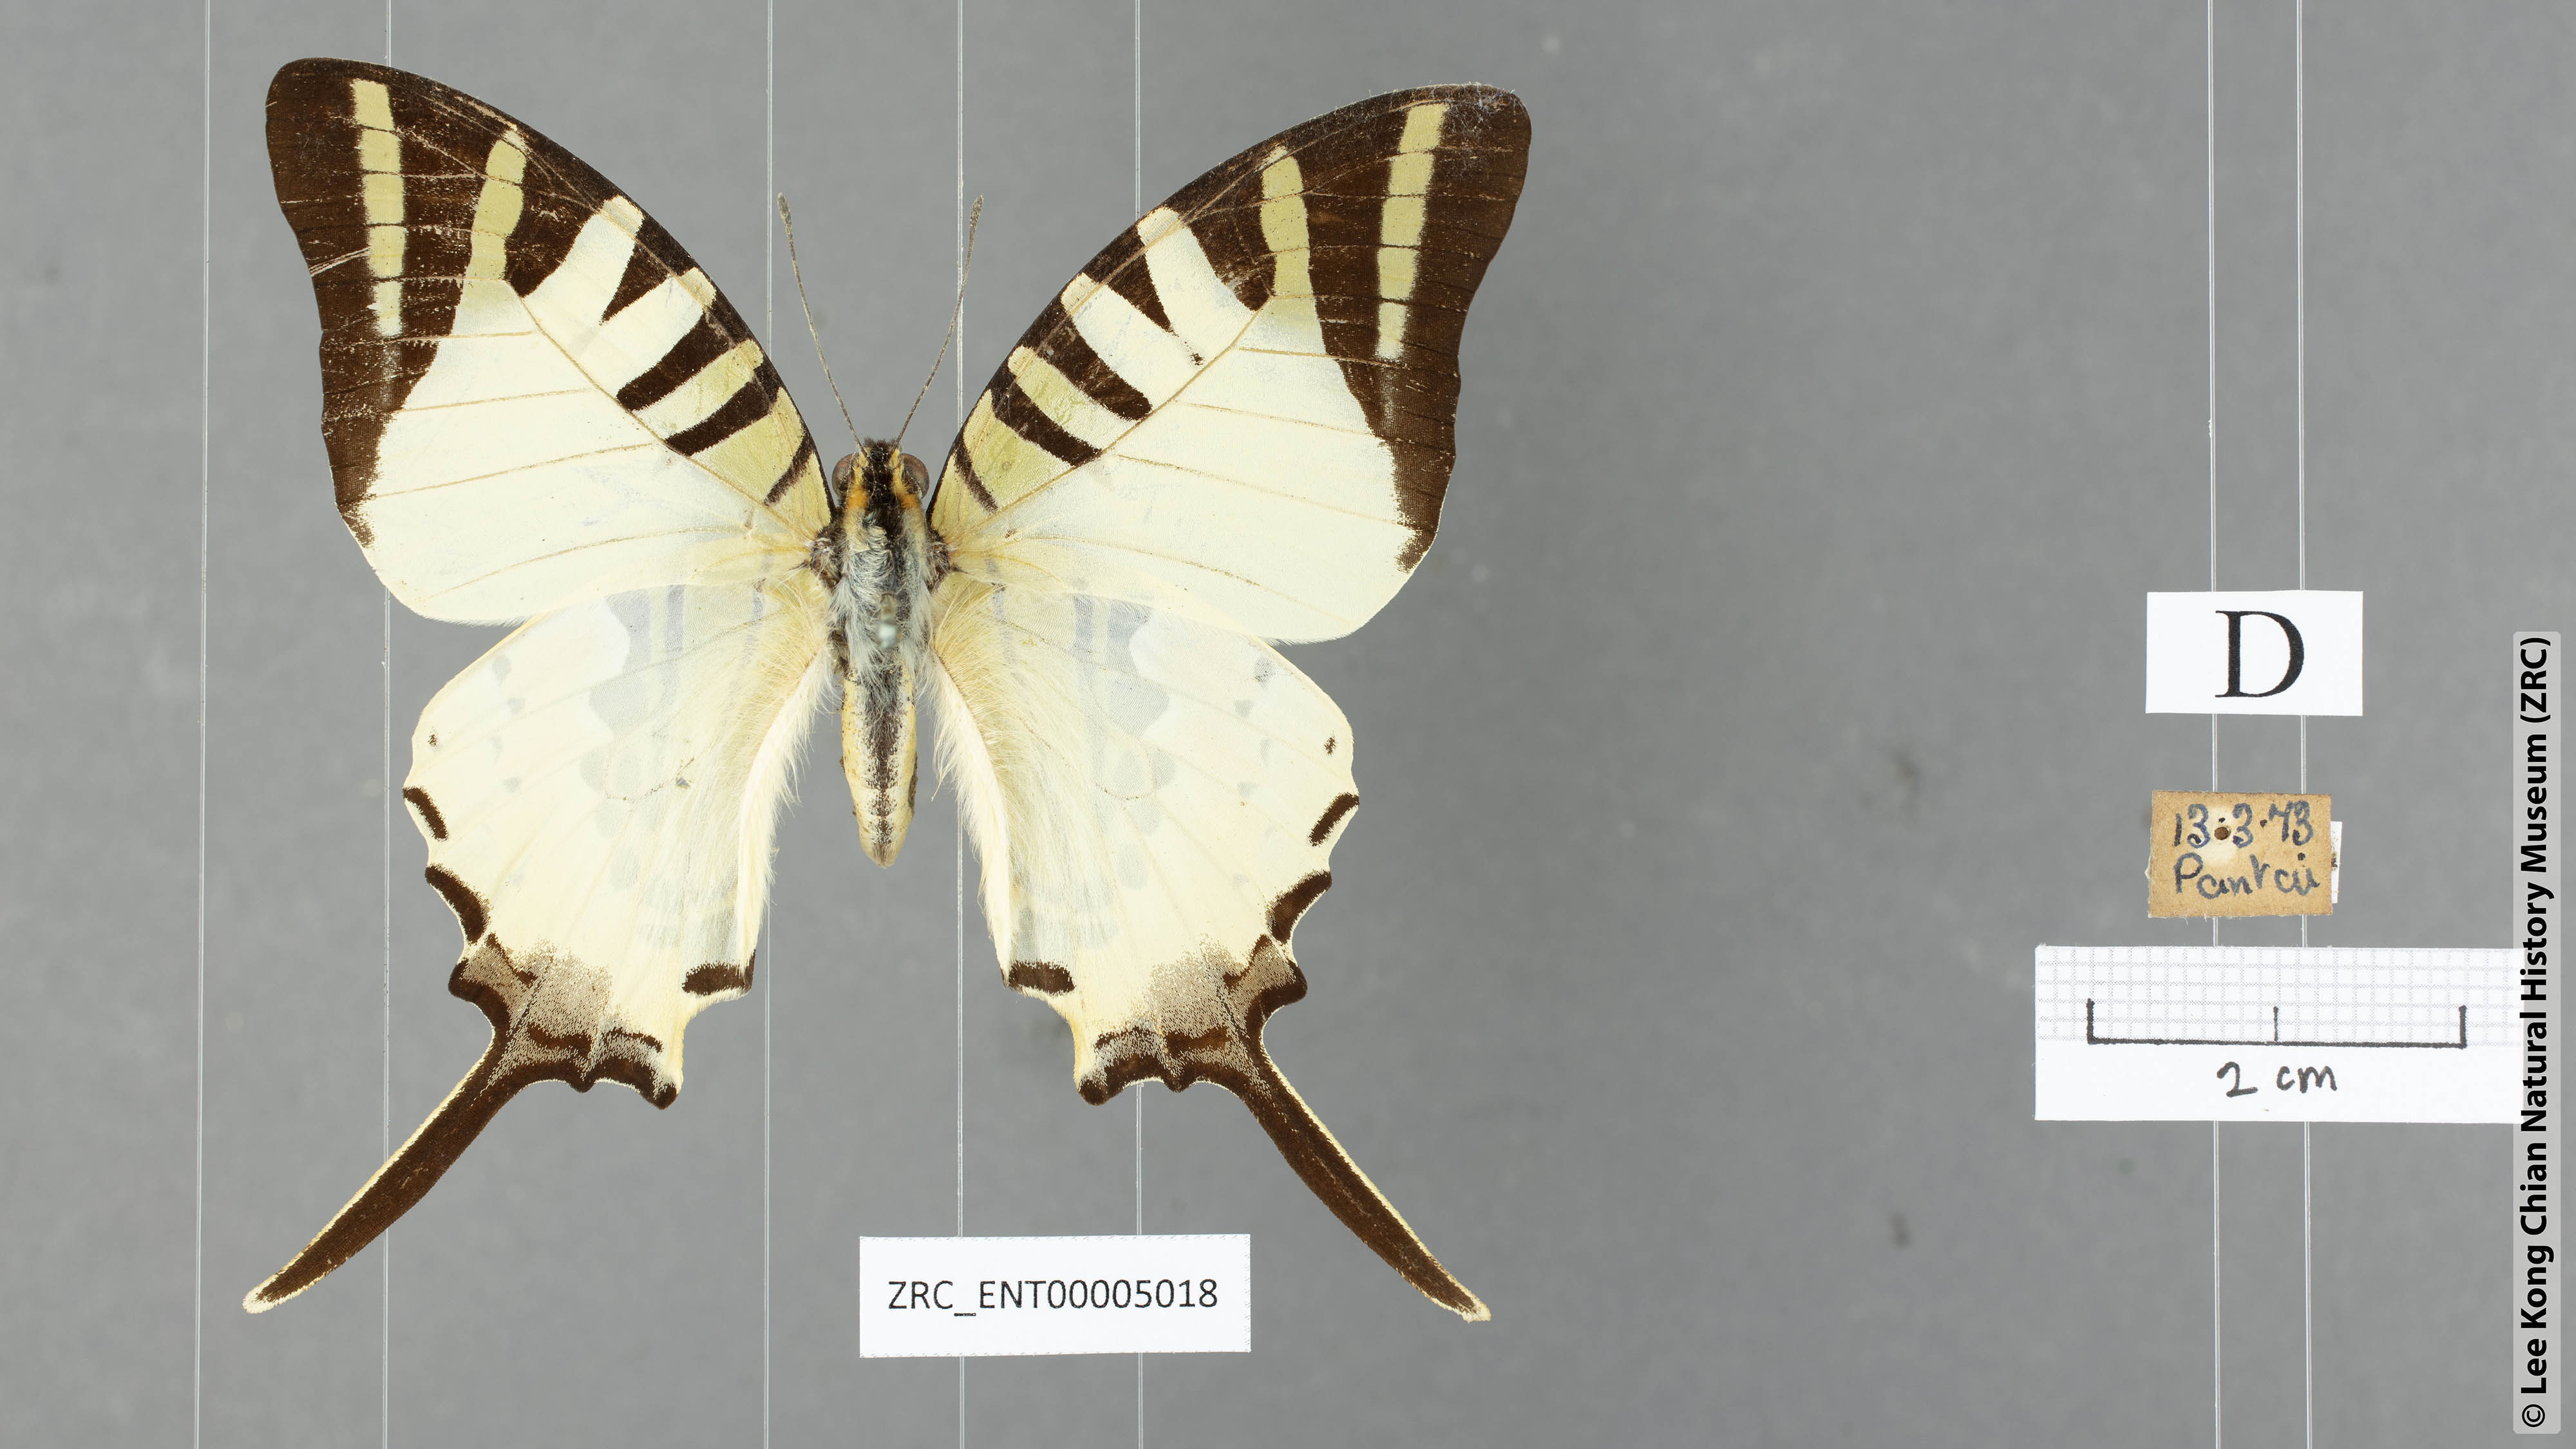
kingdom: Animalia
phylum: Arthropoda
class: Insecta
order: Lepidoptera
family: Papilionidae
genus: Graphium
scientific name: Graphium antiphates
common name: Fivebar swordtail
